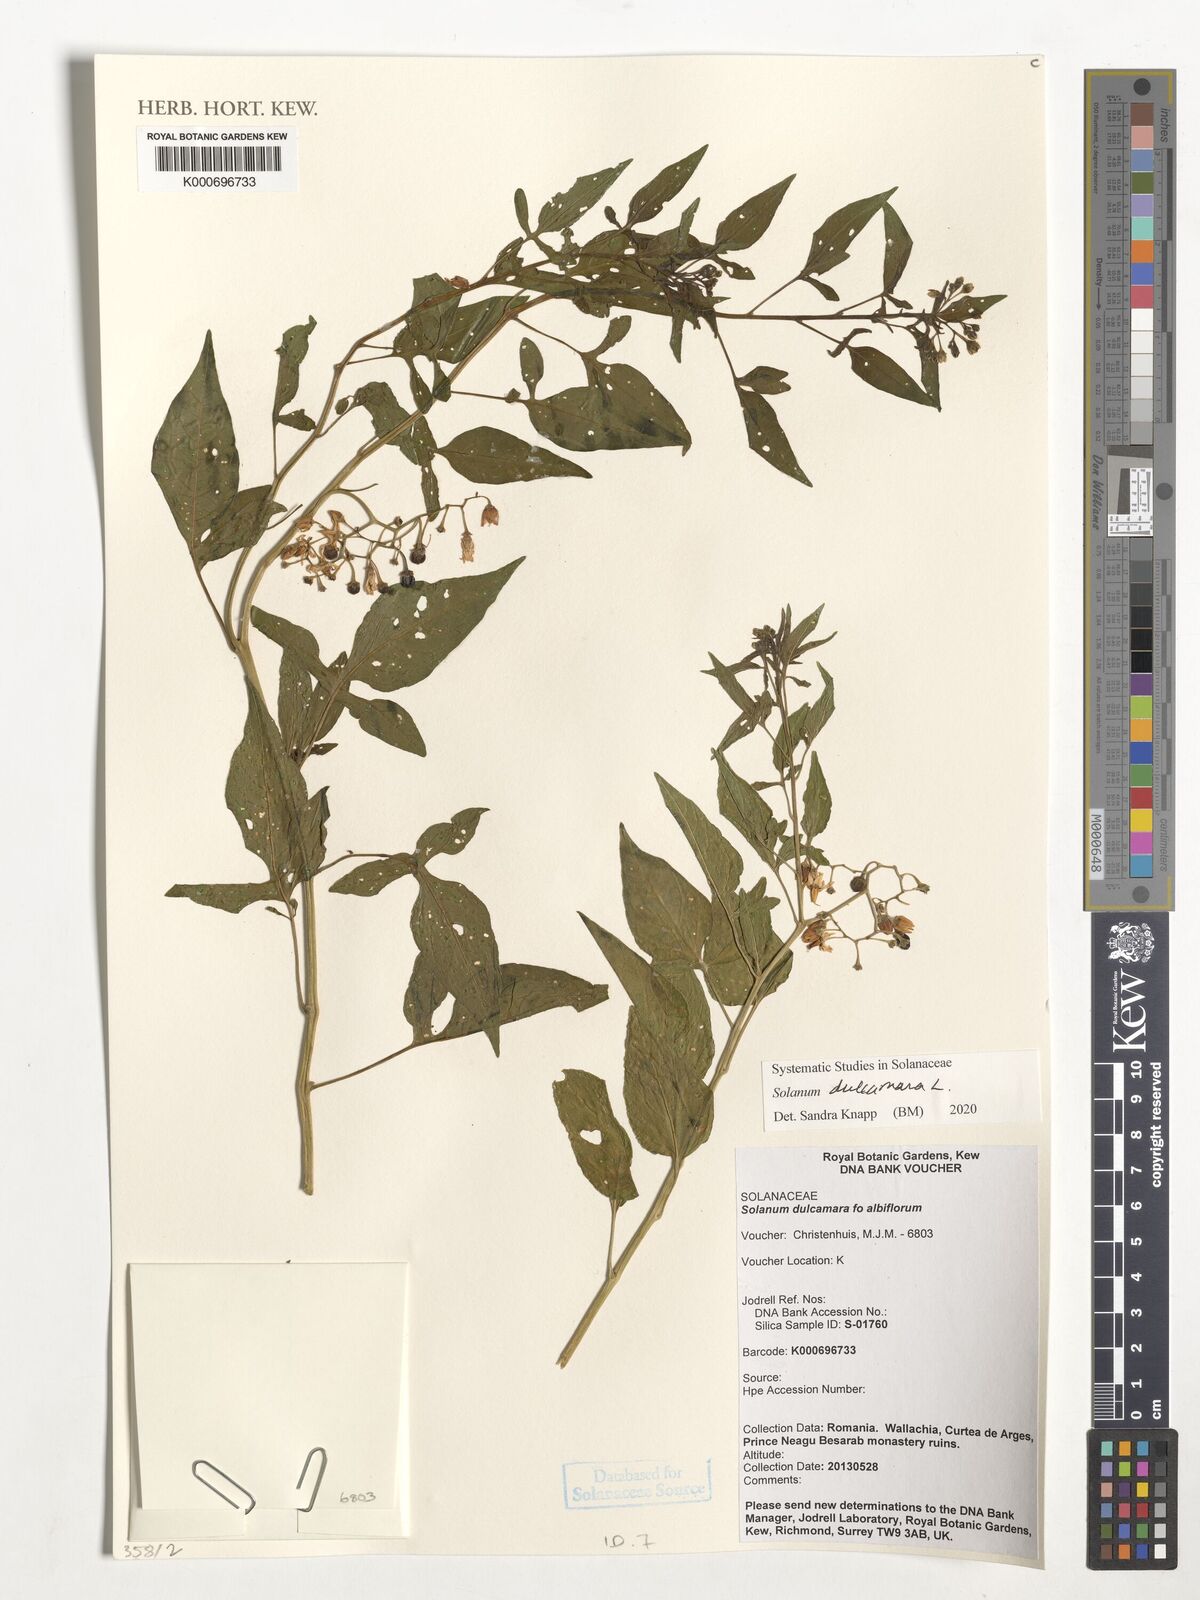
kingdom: Plantae
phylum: Tracheophyta
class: Magnoliopsida
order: Solanales
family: Solanaceae
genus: Solanum
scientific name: Solanum
